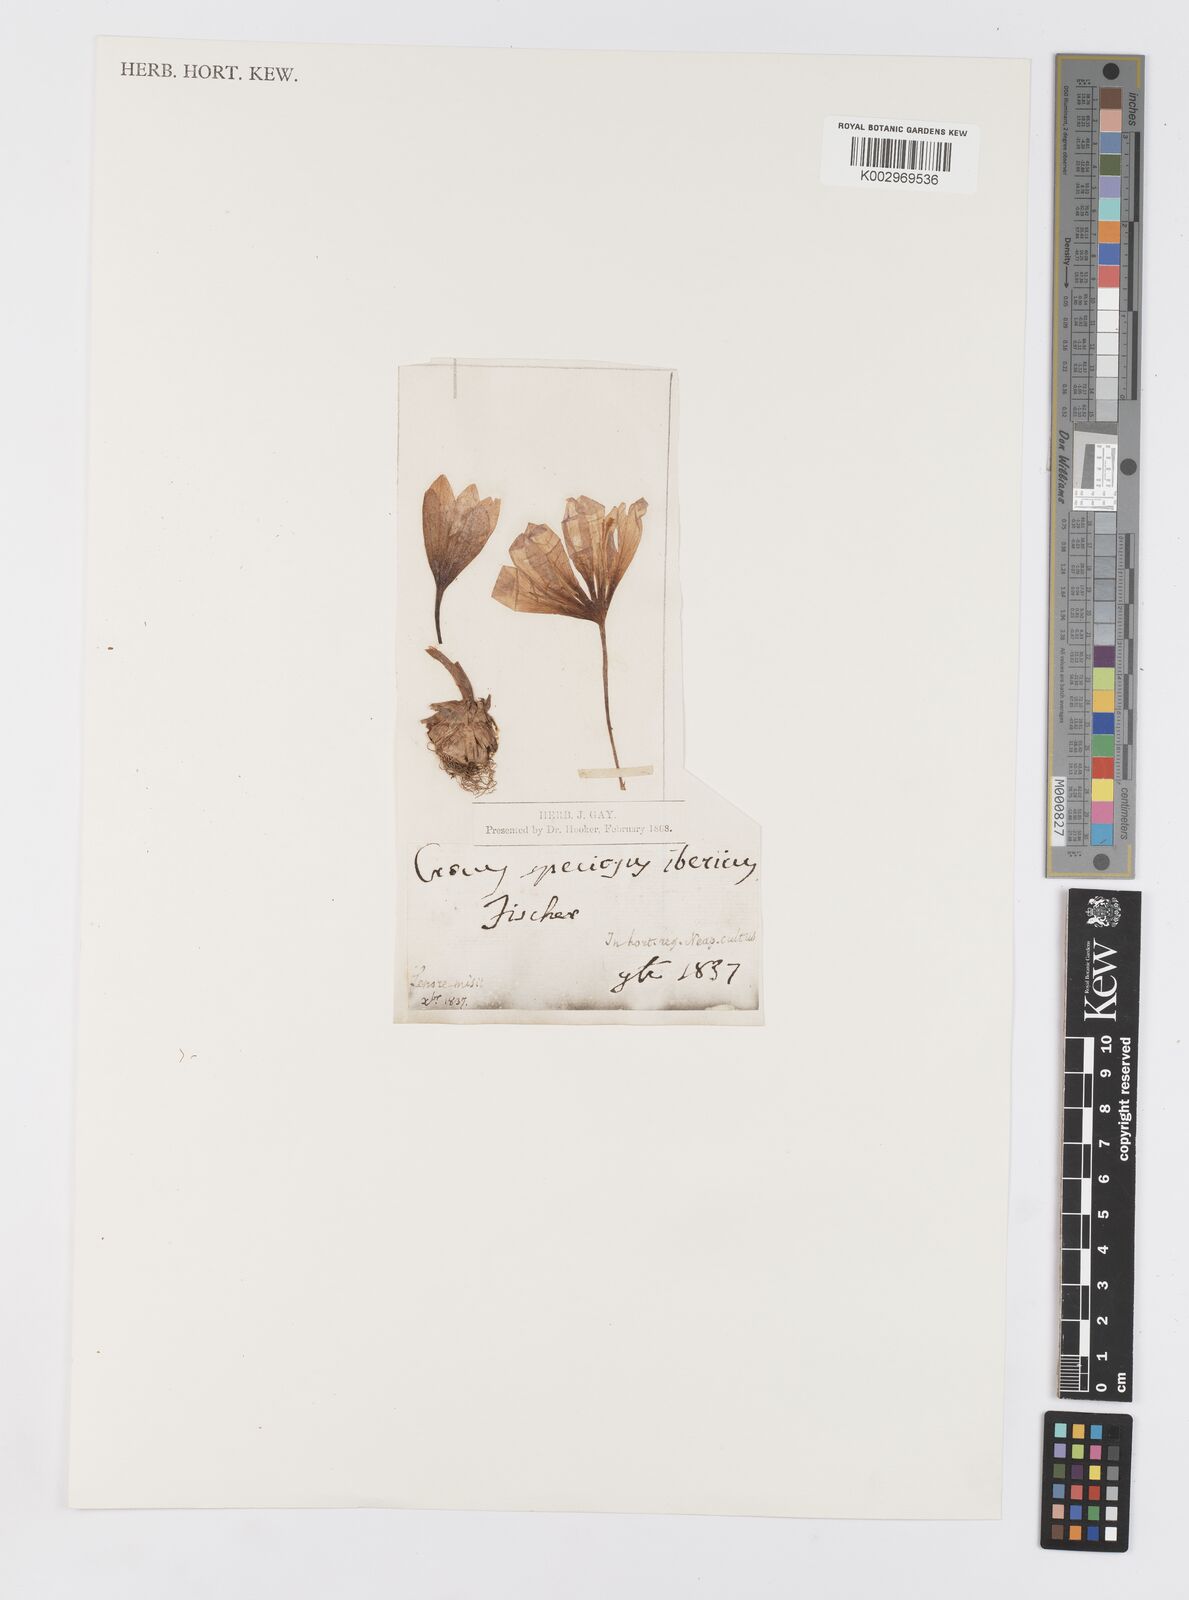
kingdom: Plantae
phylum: Tracheophyta
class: Liliopsida
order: Asparagales
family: Iridaceae
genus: Crocus
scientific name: Crocus speciosus
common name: Bieberstein's crocus
